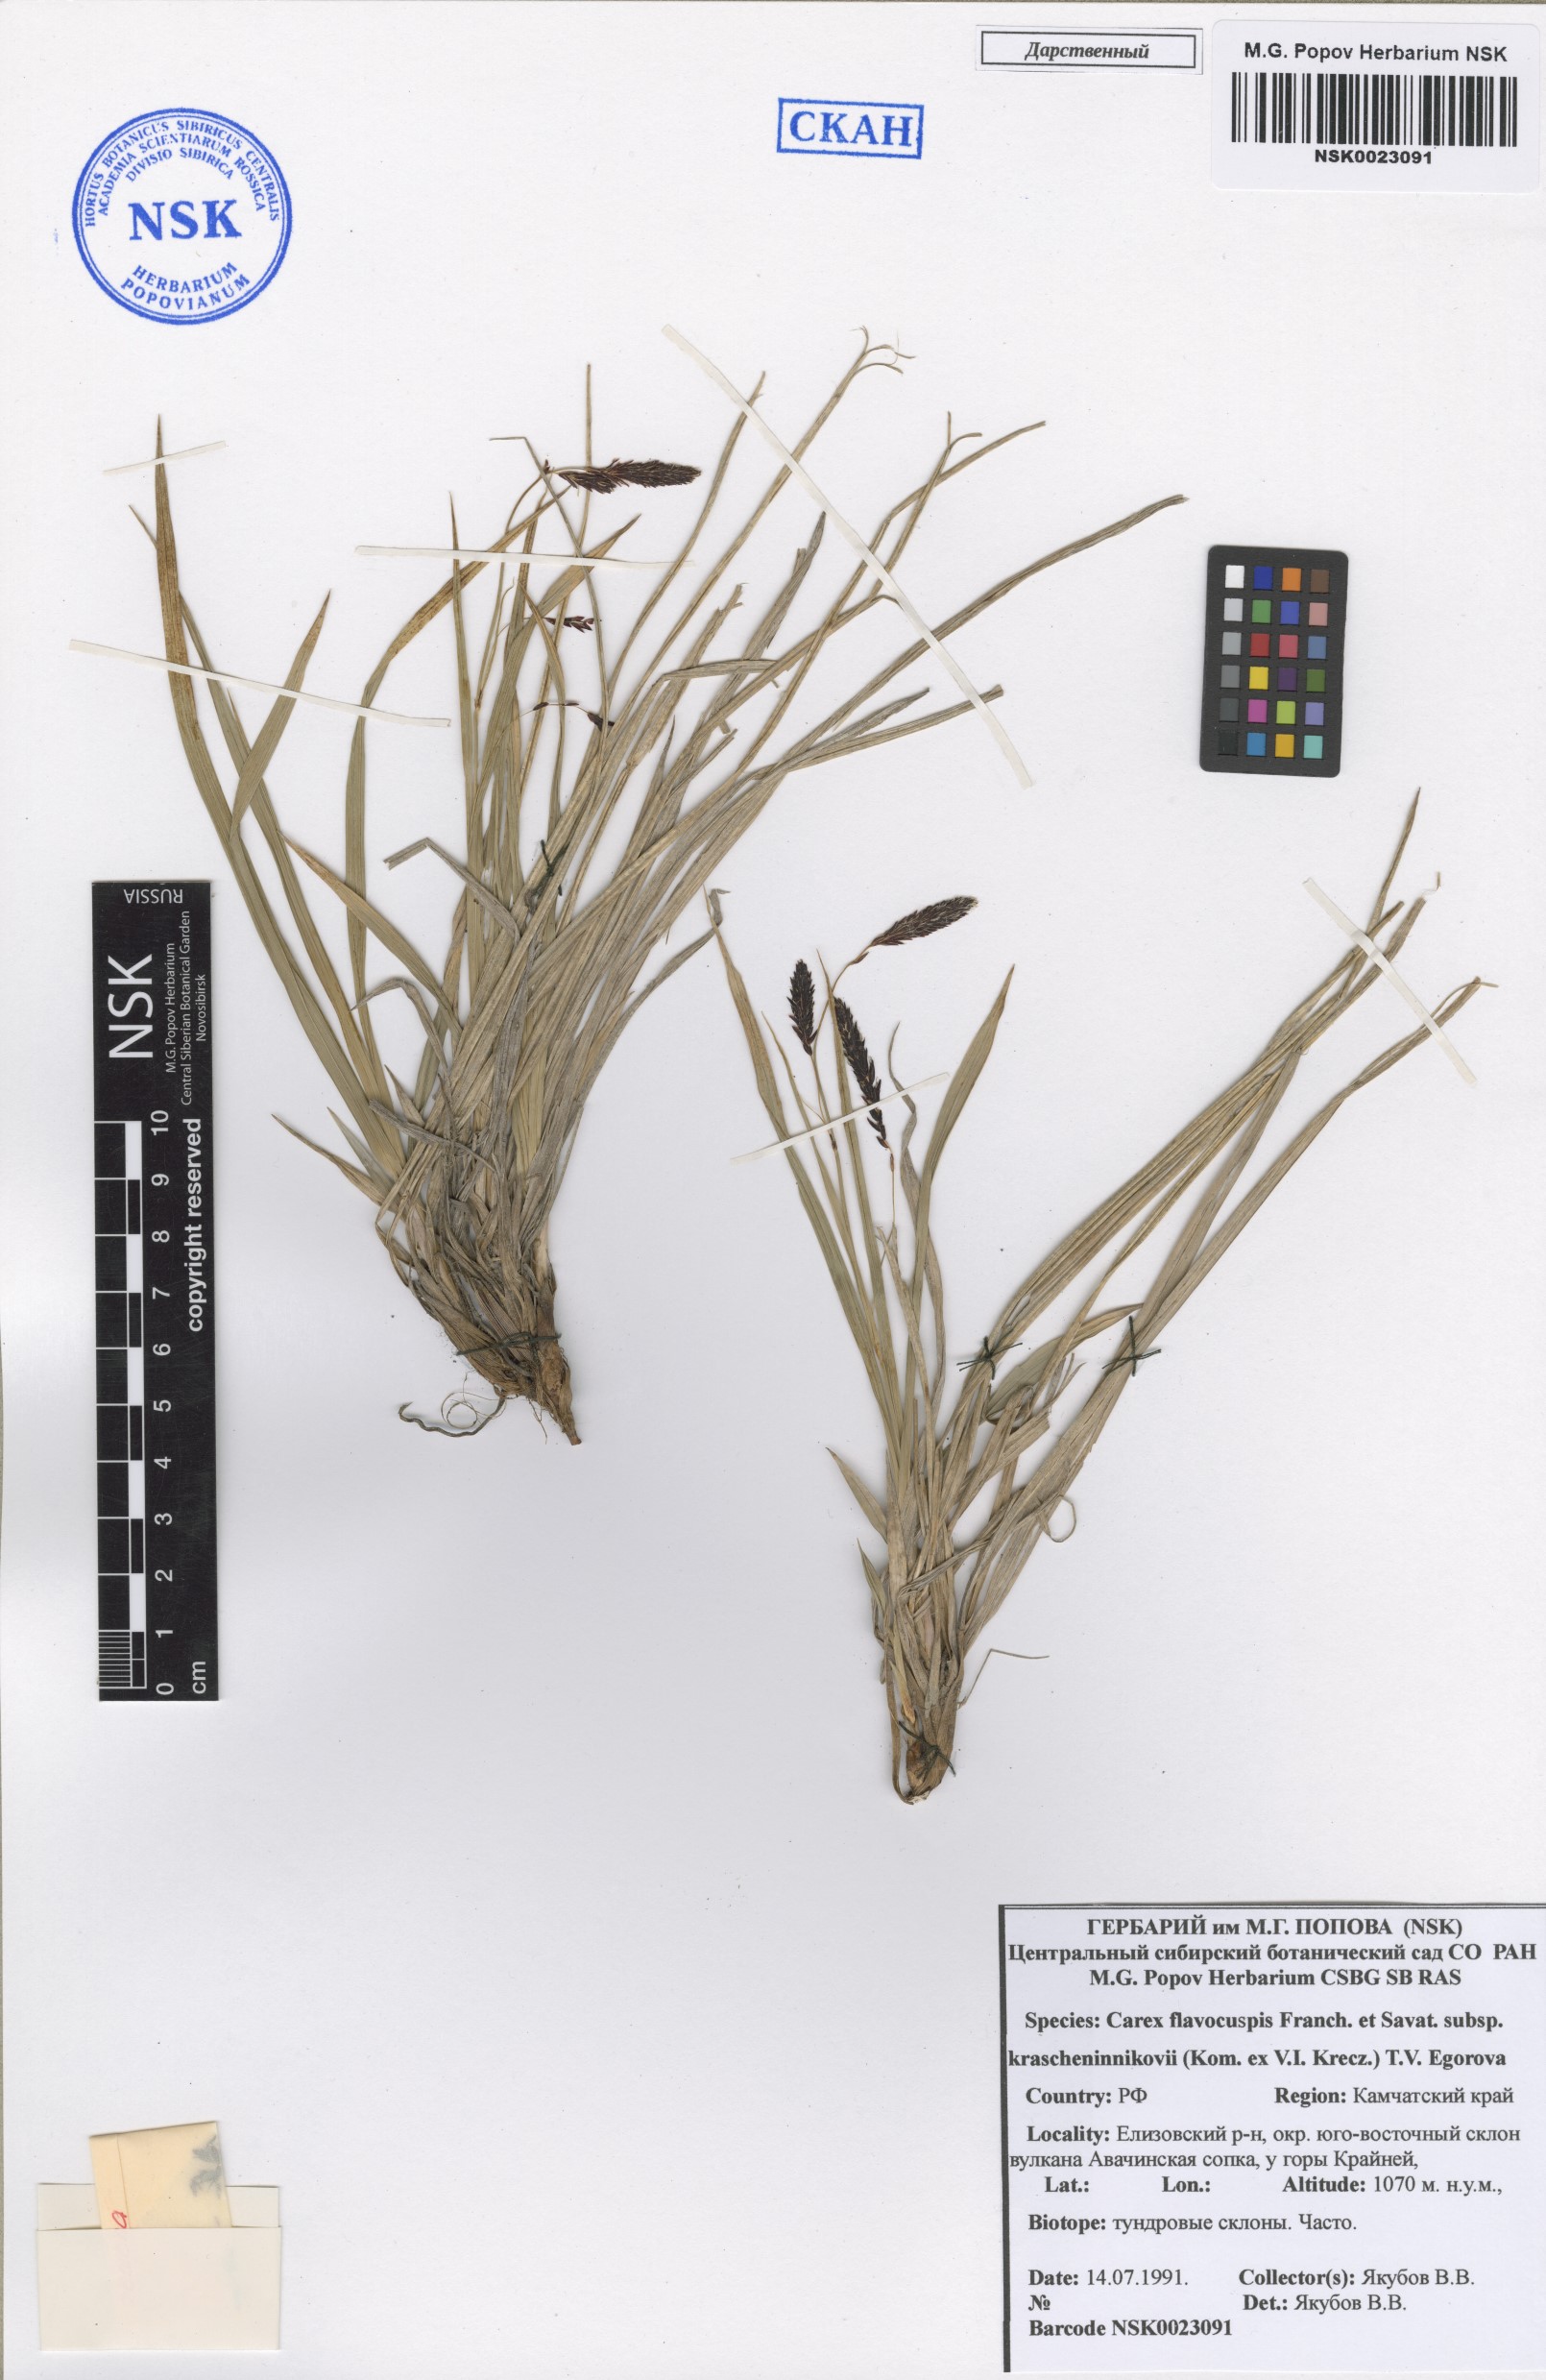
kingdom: Plantae
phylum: Tracheophyta
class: Liliopsida
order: Poales
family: Cyperaceae
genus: Carex
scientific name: Carex krascheninnikovii
